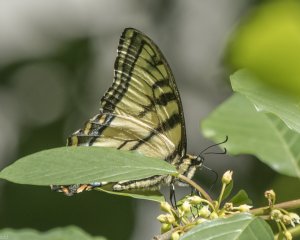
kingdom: Animalia
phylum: Arthropoda
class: Insecta
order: Lepidoptera
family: Papilionidae
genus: Pterourus
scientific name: Pterourus canadensis
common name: Canadian Tiger Swallowtail
